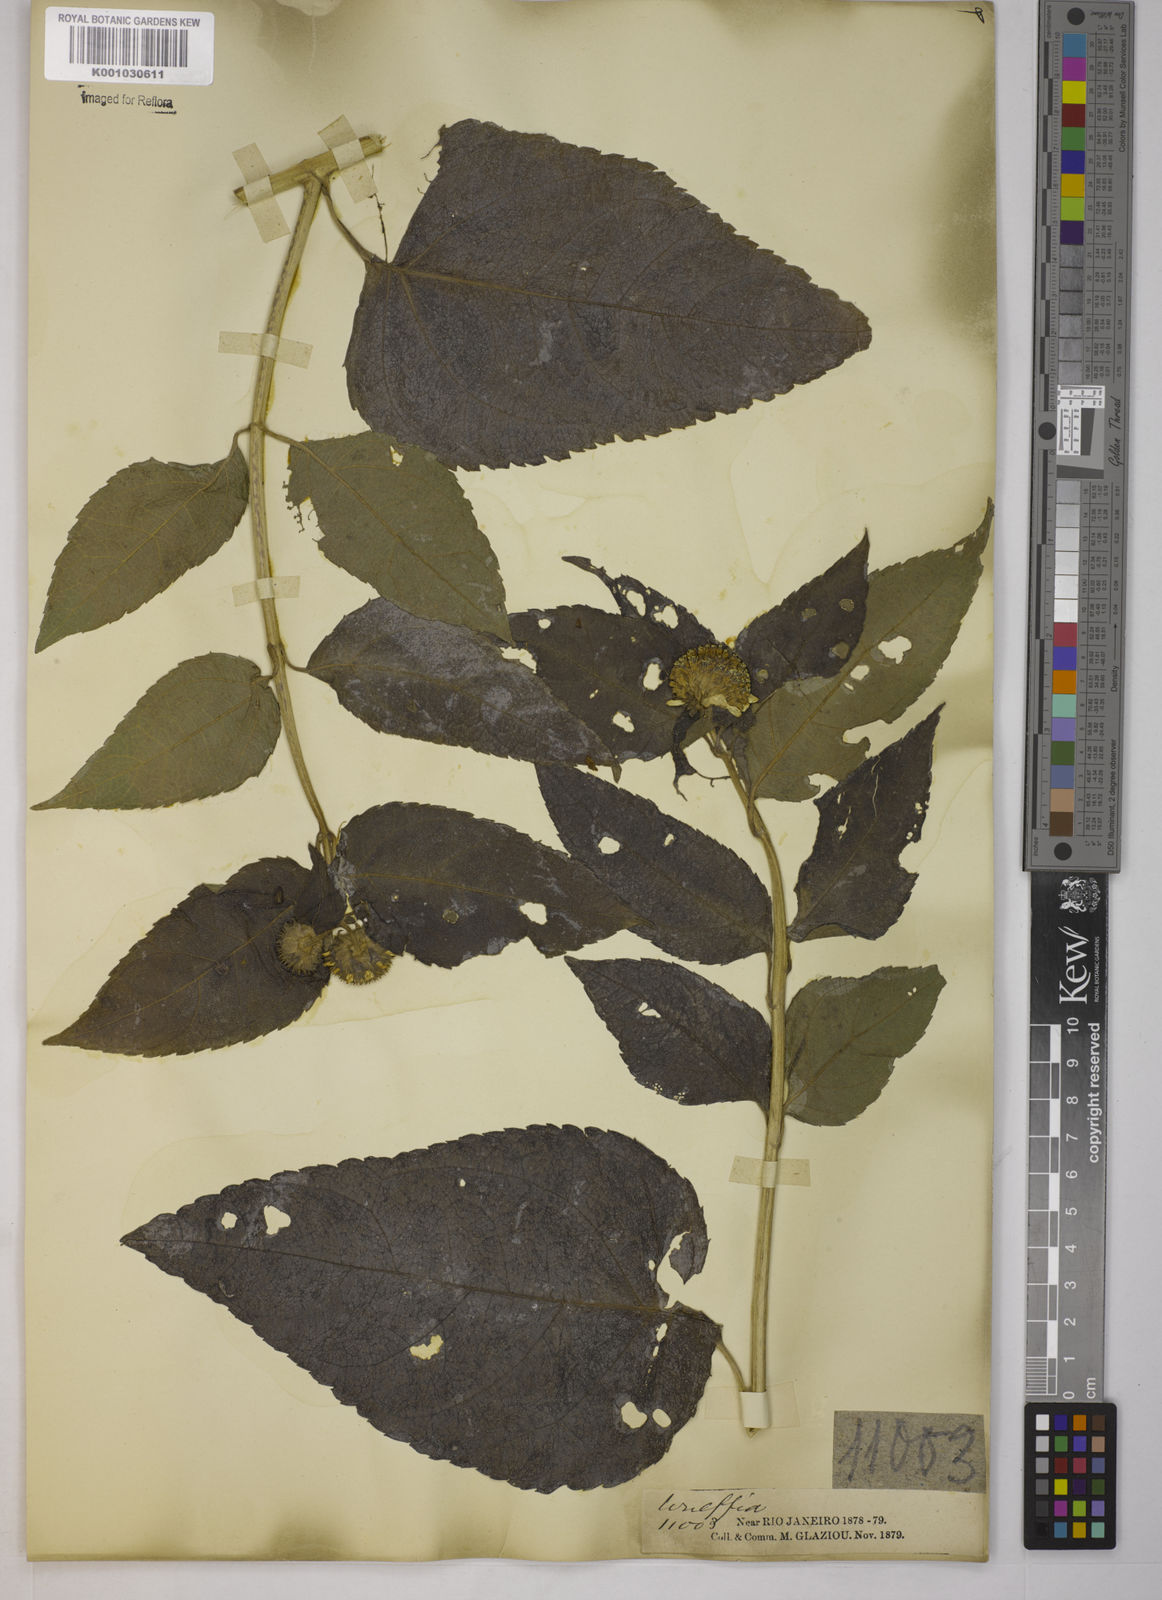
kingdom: Plantae
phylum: Tracheophyta
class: Magnoliopsida
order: Asterales
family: Asteraceae
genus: Tilesia
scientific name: Tilesia baccata
